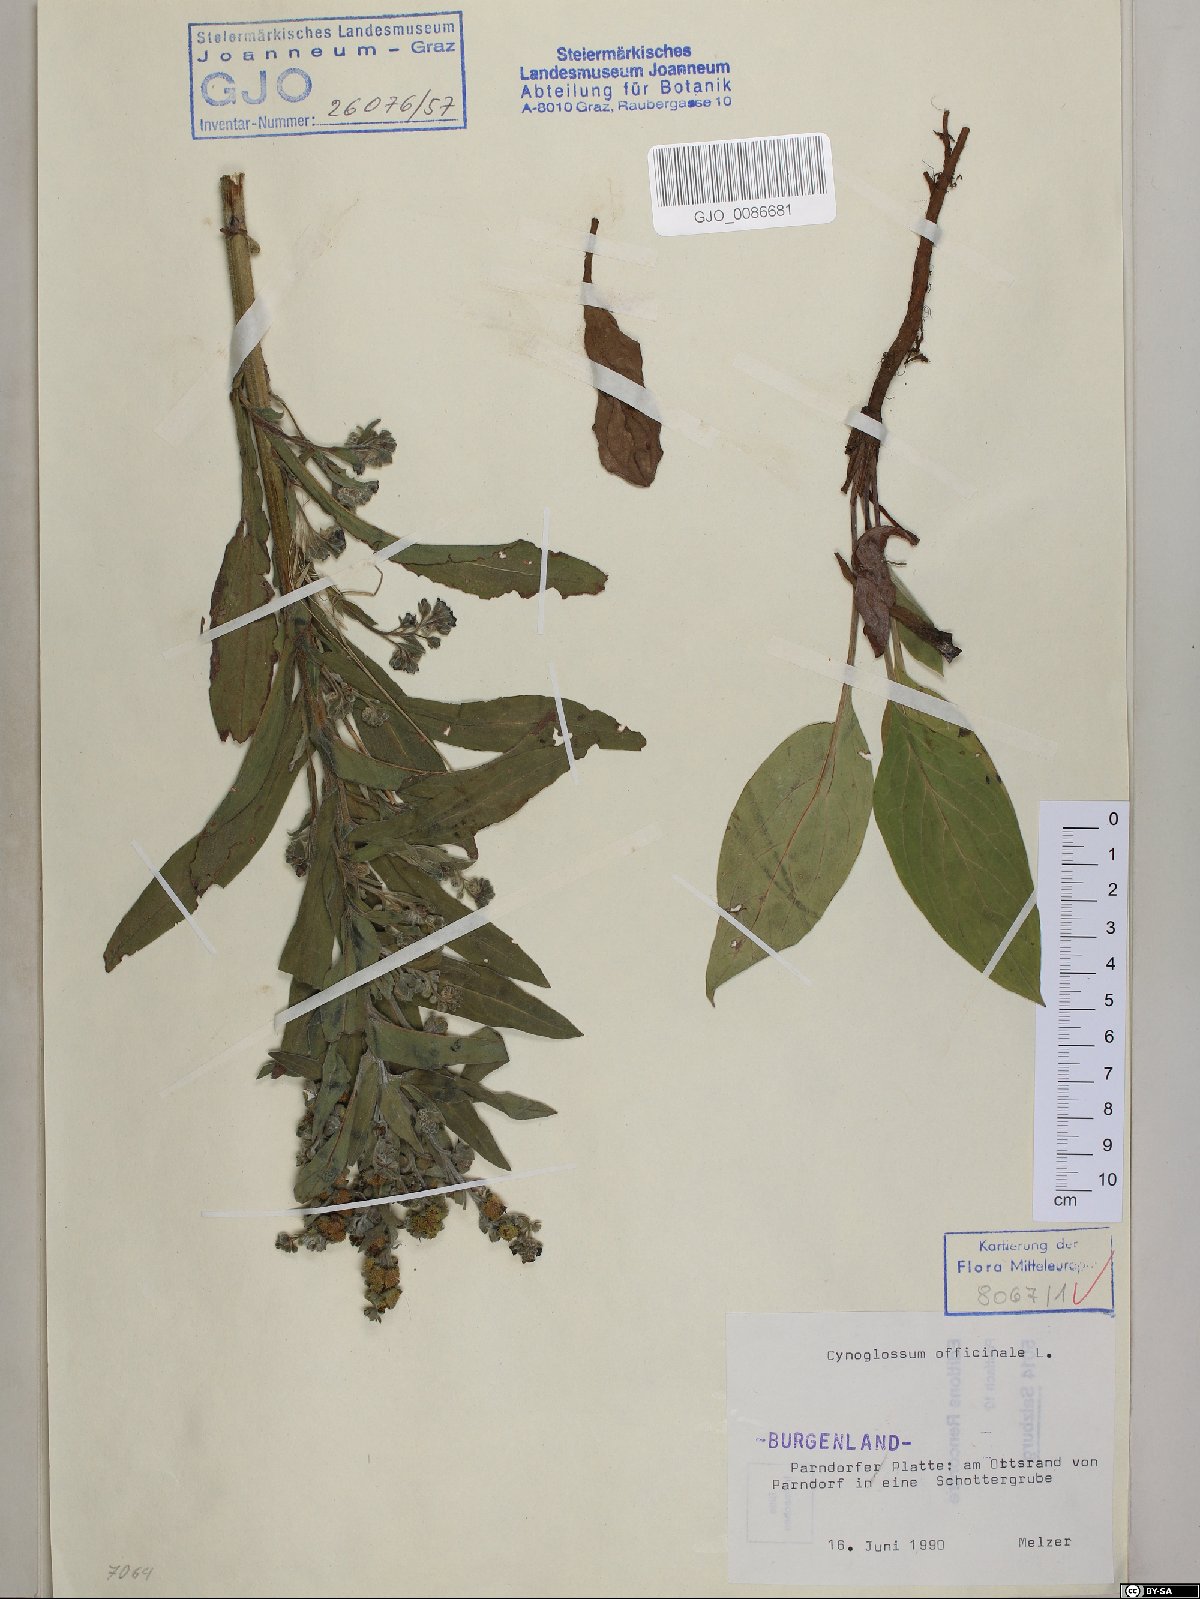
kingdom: Plantae
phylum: Tracheophyta
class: Magnoliopsida
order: Boraginales
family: Boraginaceae
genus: Cynoglossum
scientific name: Cynoglossum officinale
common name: Hound's-tongue
